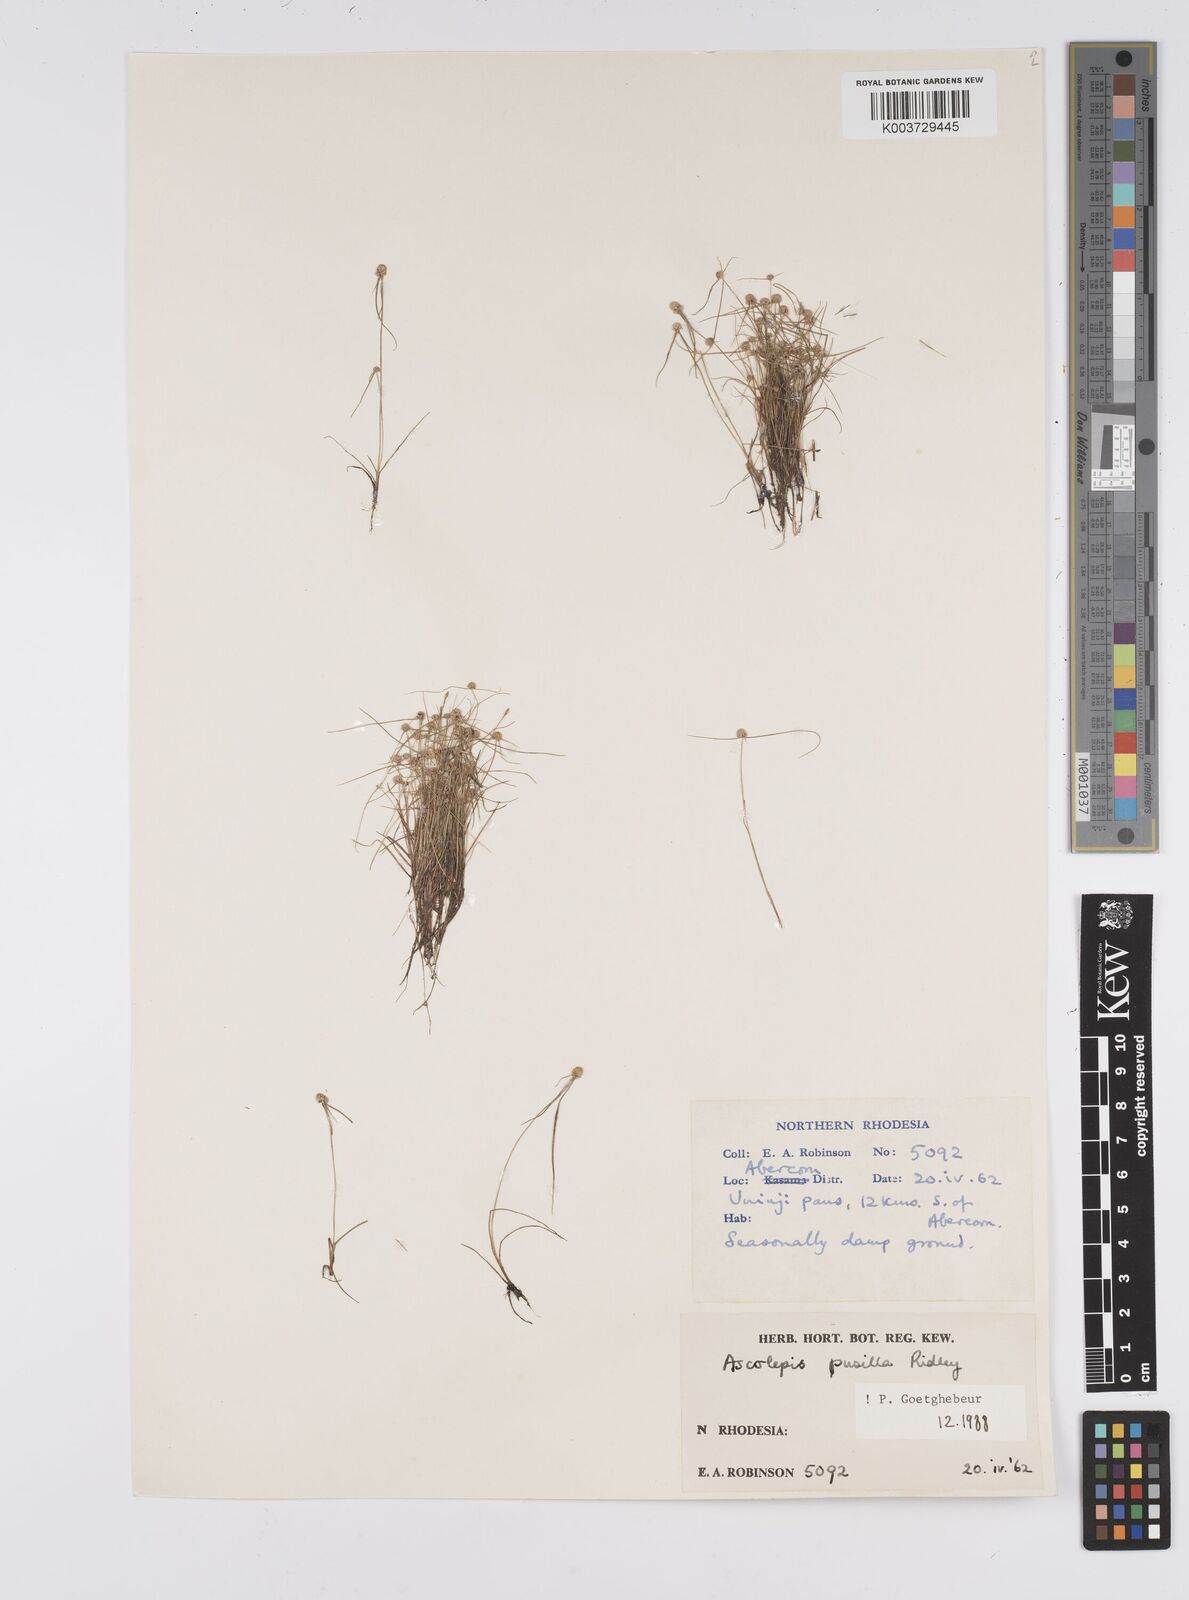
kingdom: Plantae
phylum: Tracheophyta
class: Liliopsida
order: Poales
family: Cyperaceae
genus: Cyperus
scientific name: Cyperus
